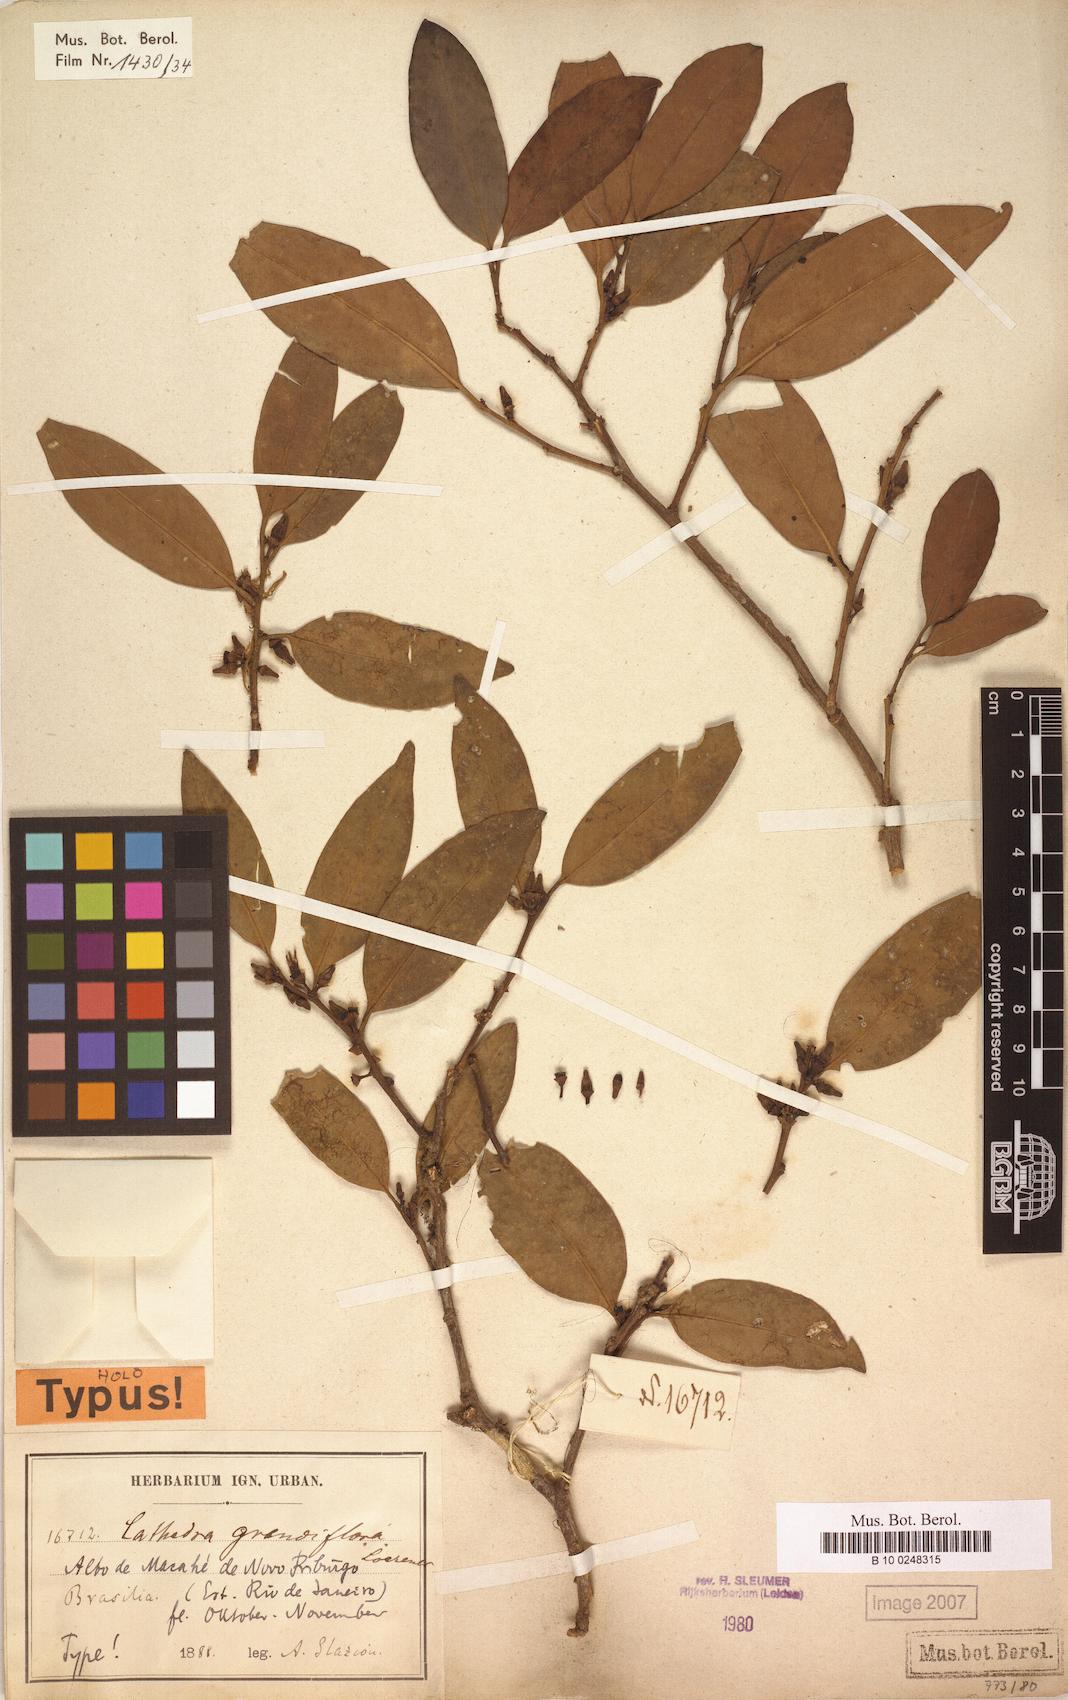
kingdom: Plantae
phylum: Tracheophyta
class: Magnoliopsida
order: Santalales
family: Aptandraceae
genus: Cathedra
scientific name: Cathedra grandiflora
